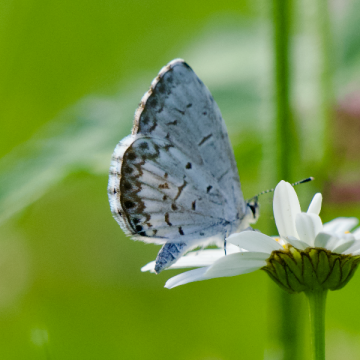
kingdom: Animalia
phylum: Arthropoda
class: Insecta
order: Lepidoptera
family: Lycaenidae
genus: Celastrina
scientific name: Celastrina lucia
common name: Northern Spring Azure
